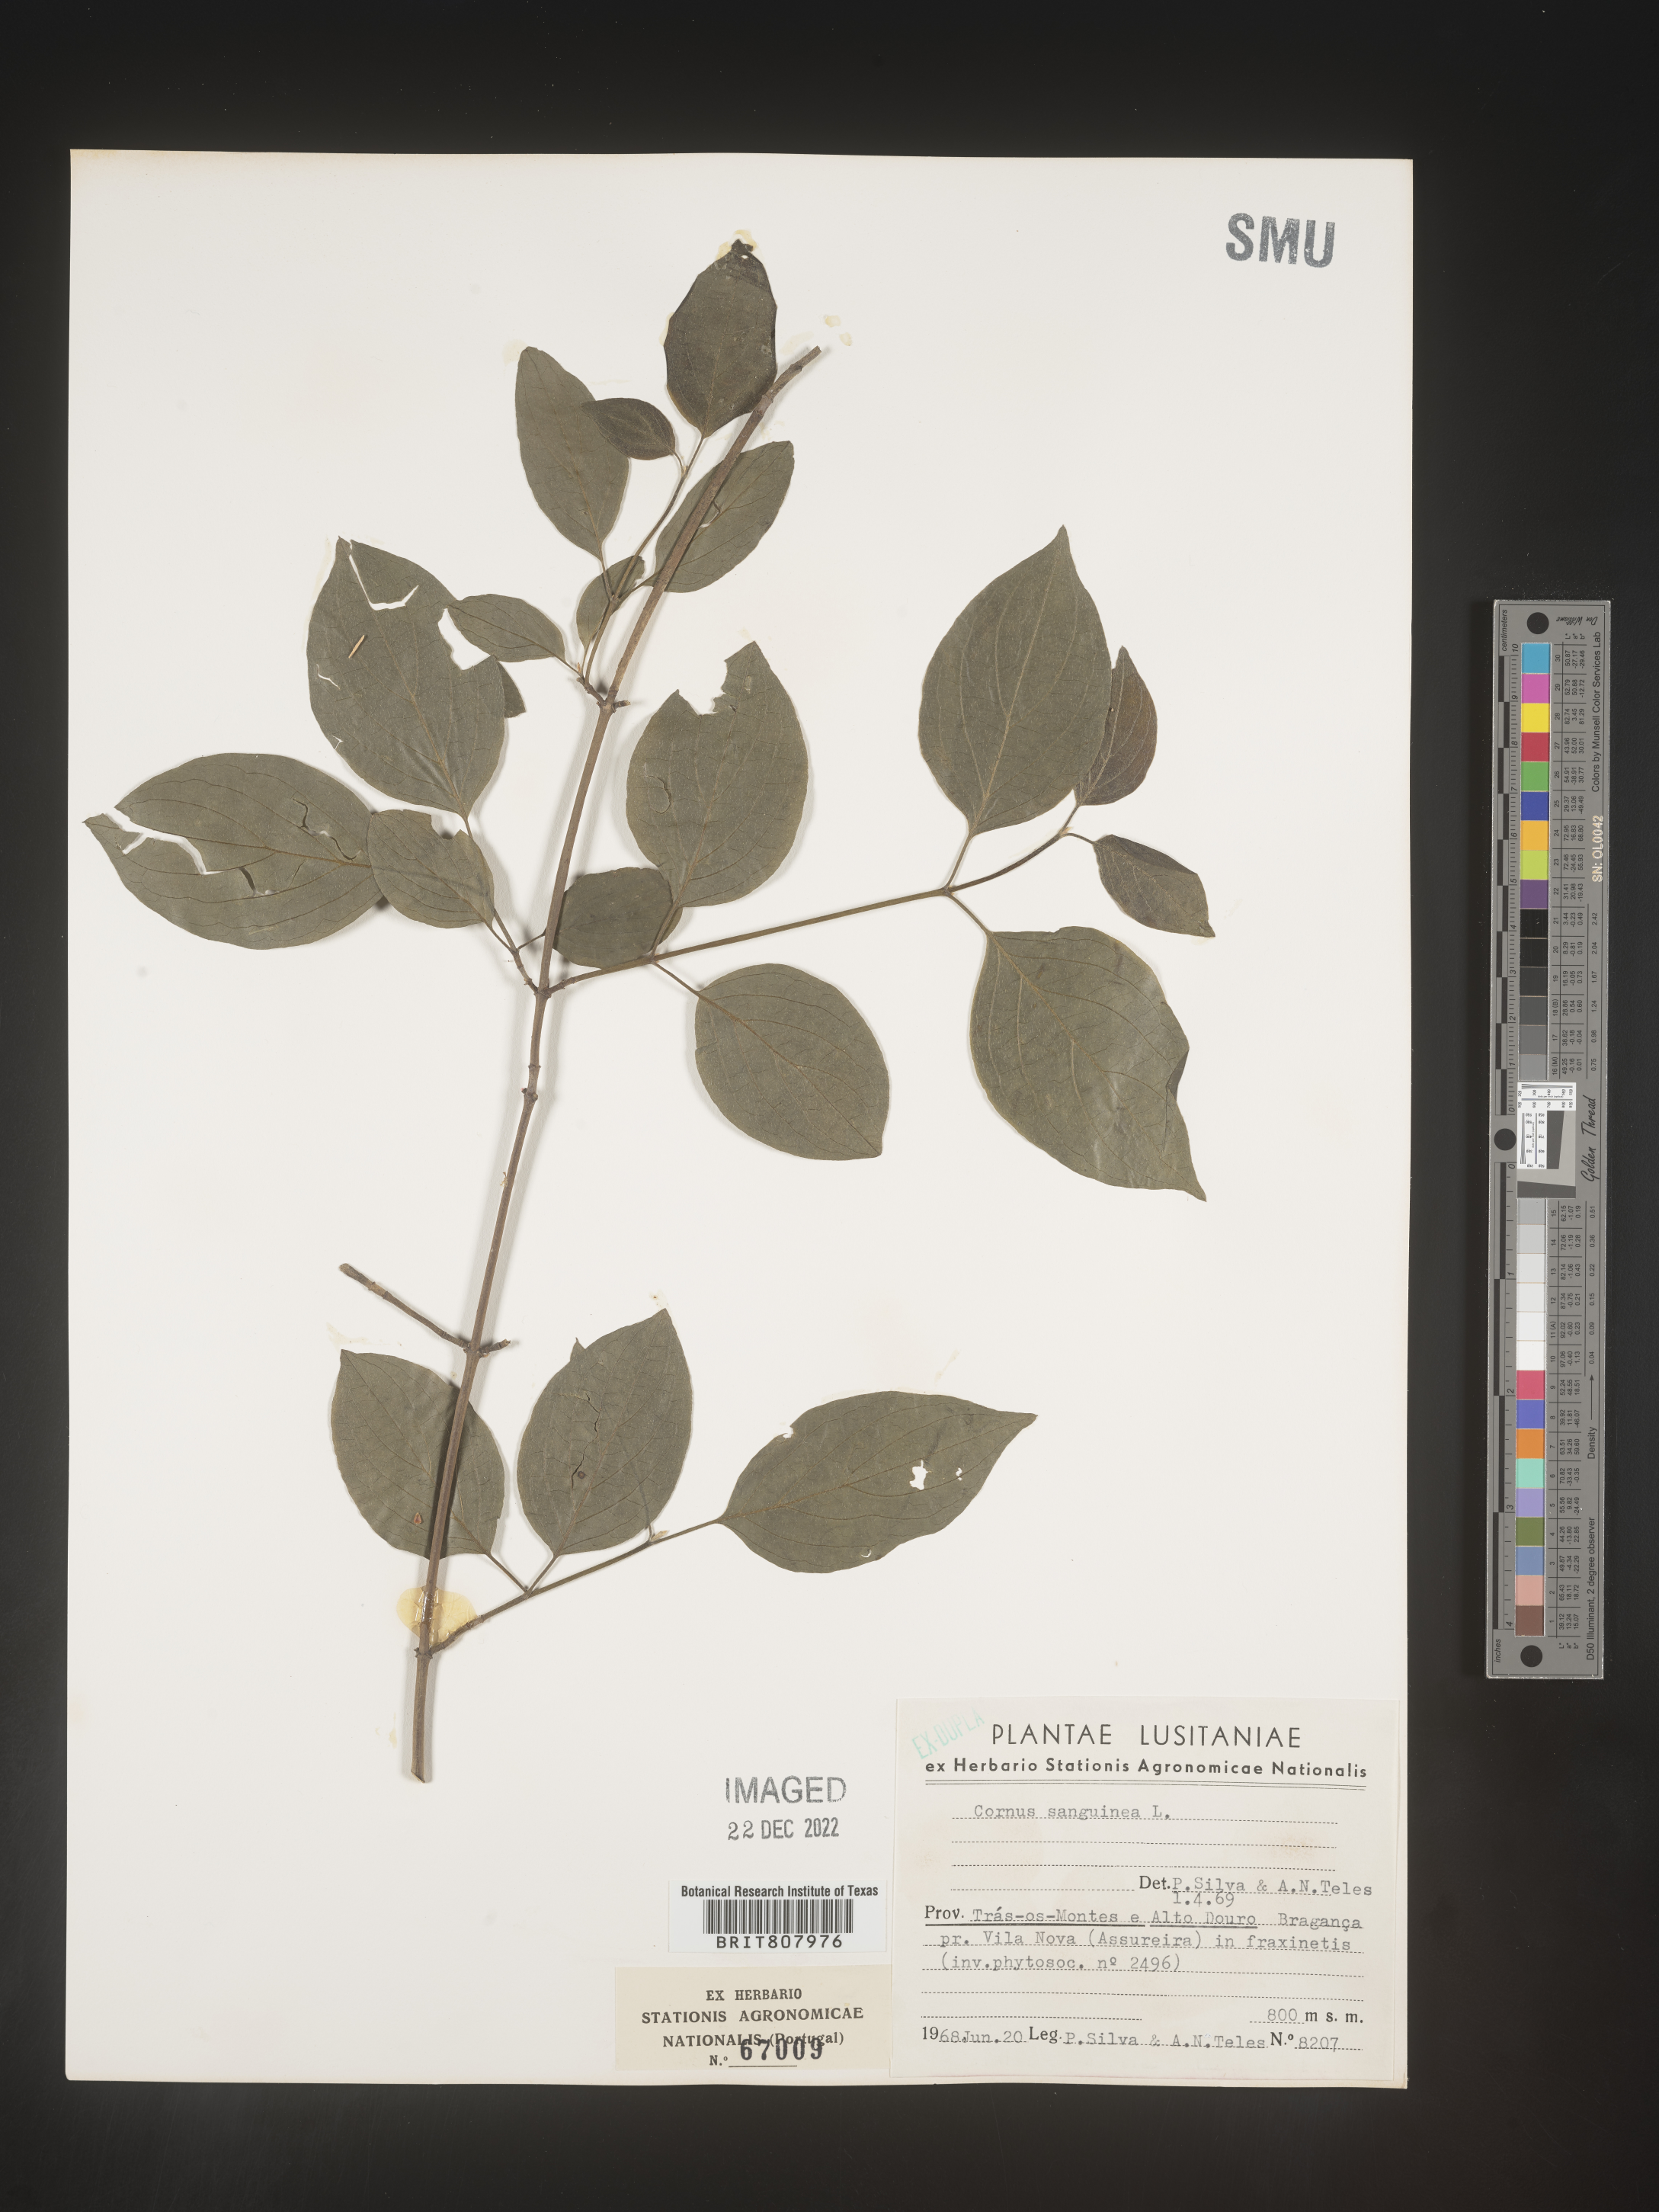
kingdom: Plantae
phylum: Tracheophyta
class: Magnoliopsida
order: Cornales
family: Cornaceae
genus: Cornus
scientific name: Cornus
